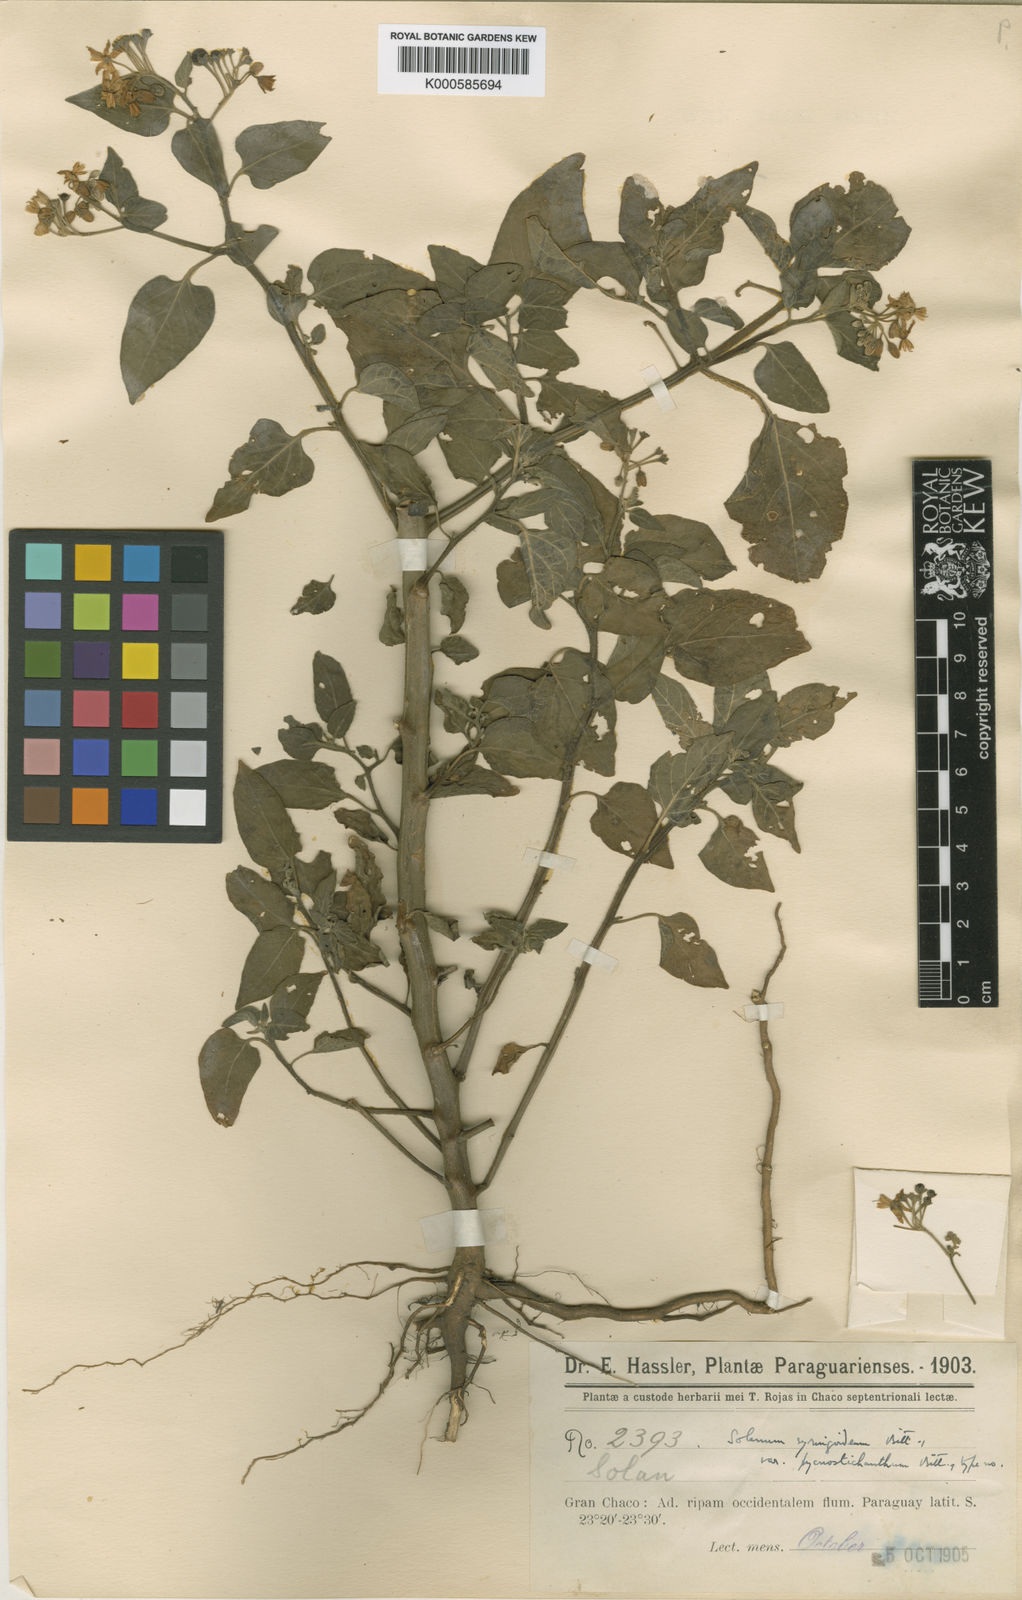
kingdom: Plantae
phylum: Tracheophyta
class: Magnoliopsida
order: Solanales
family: Solanaceae
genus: Solanum
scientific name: Solanum pilcomayense
